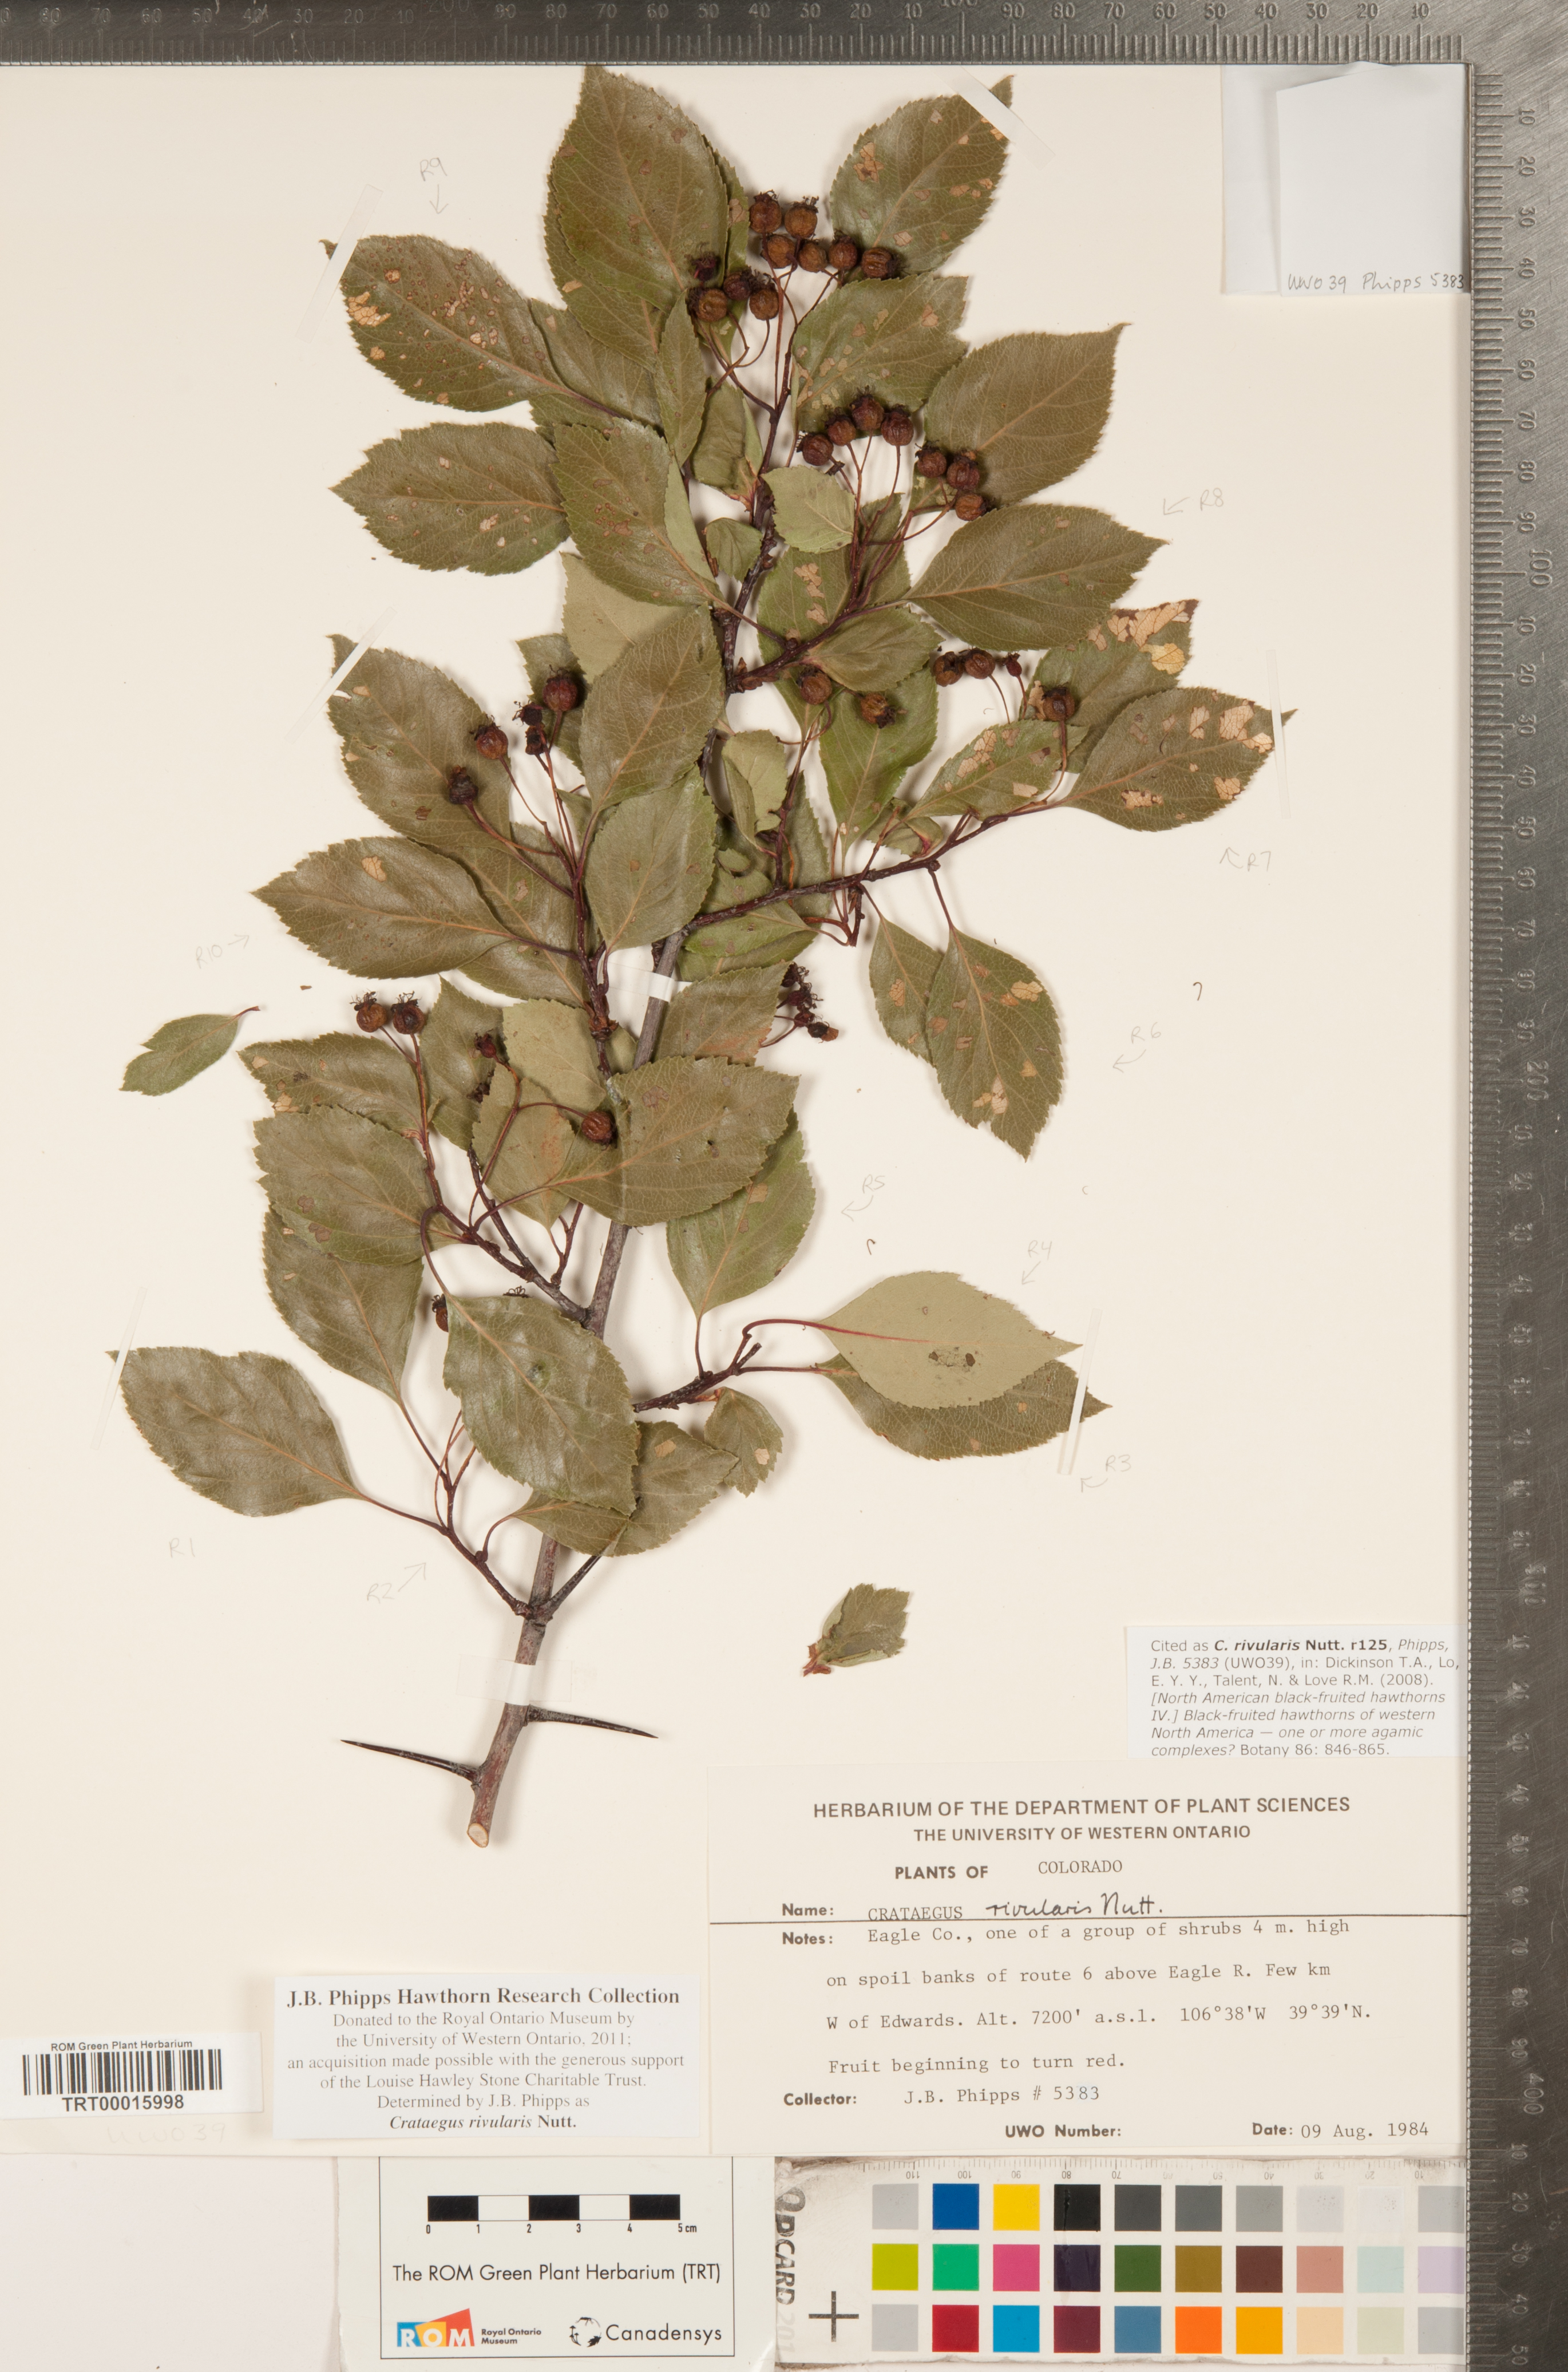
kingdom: Plantae
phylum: Tracheophyta
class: Magnoliopsida
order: Rosales
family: Rosaceae
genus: Crataegus
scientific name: Crataegus rivularis
